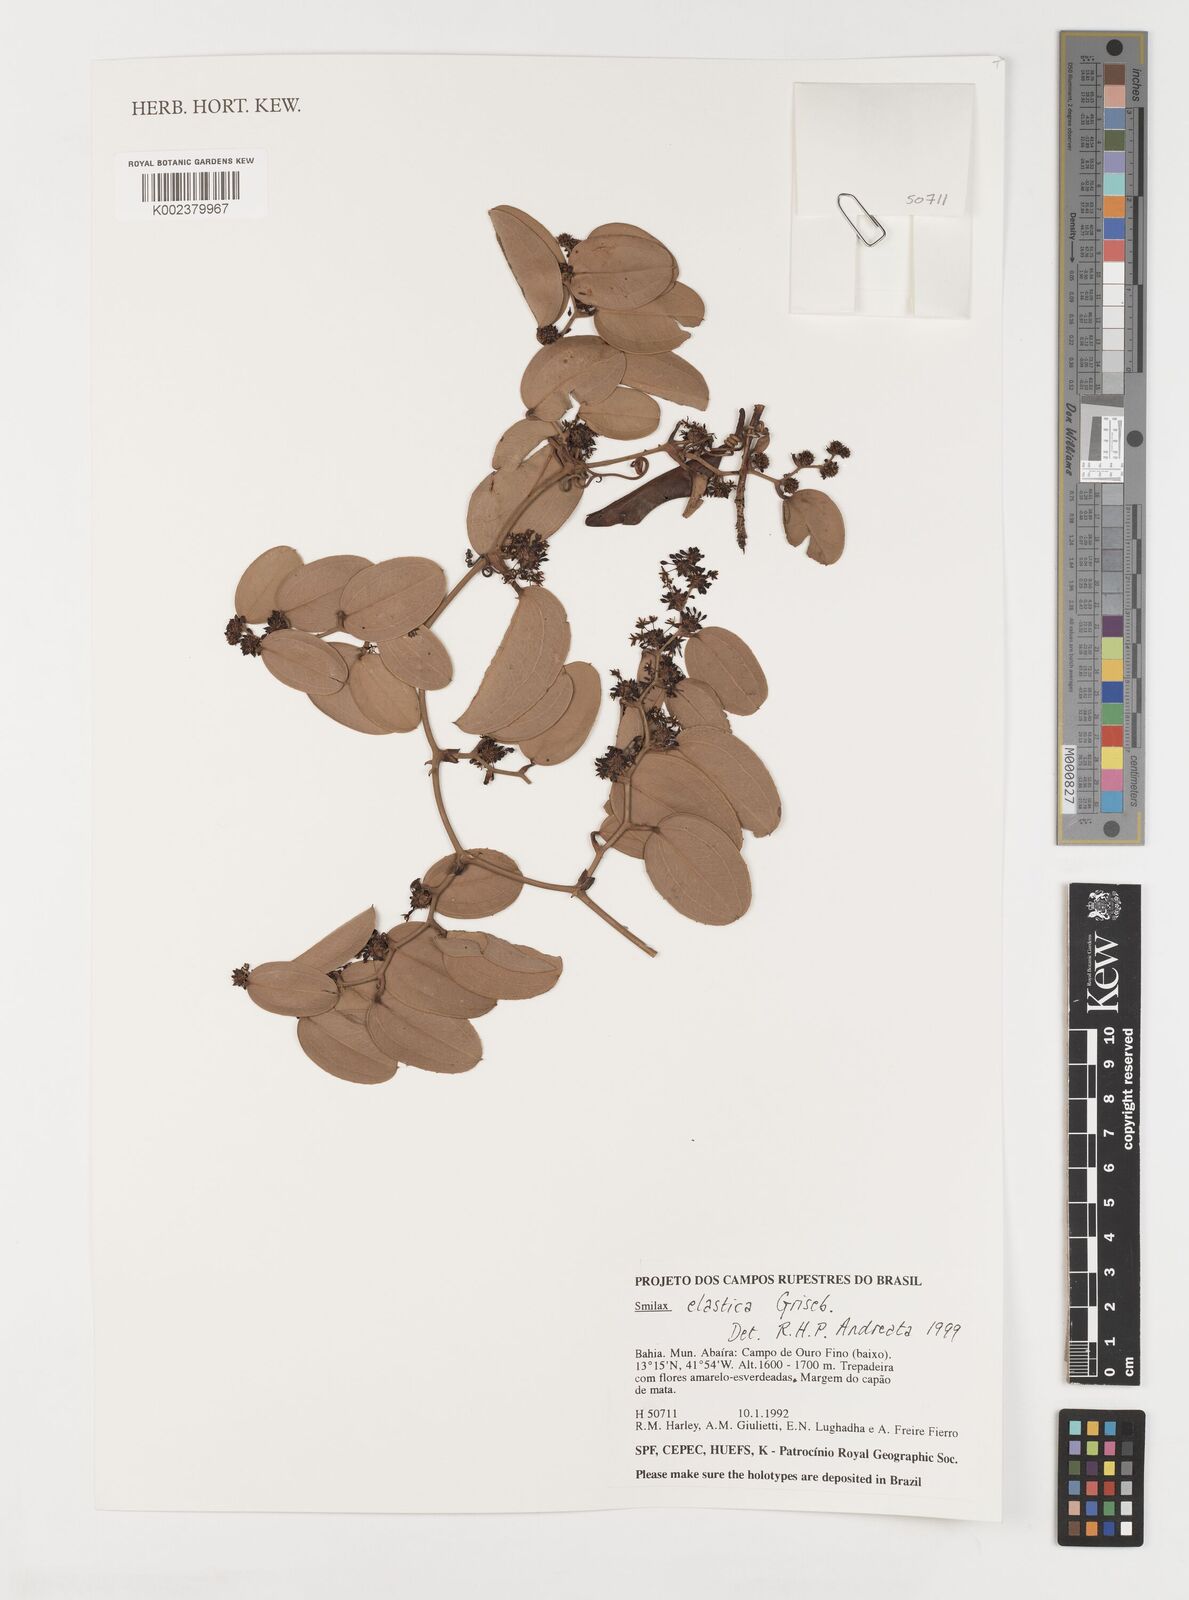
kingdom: Plantae
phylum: Tracheophyta
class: Liliopsida
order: Liliales
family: Smilacaceae
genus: Smilax
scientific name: Smilax elastica
